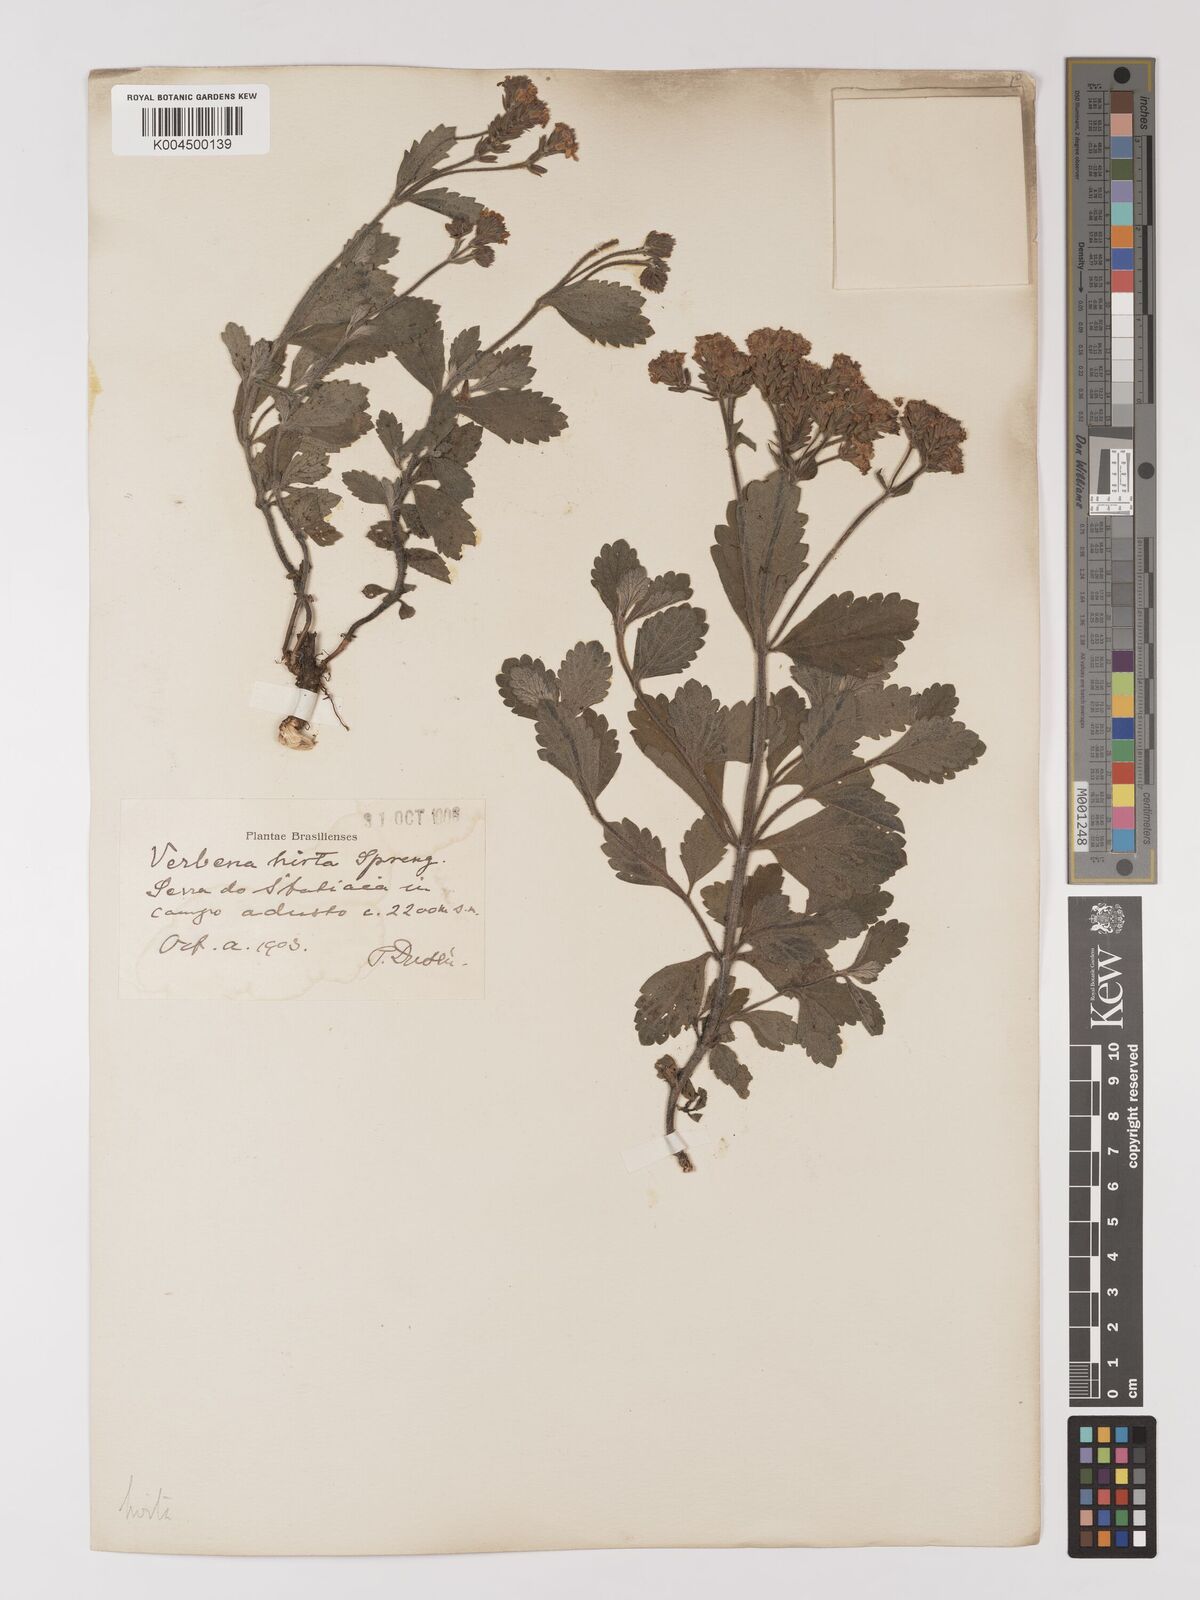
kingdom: Plantae
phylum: Tracheophyta
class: Magnoliopsida
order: Lamiales
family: Verbenaceae
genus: Verbena
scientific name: Verbena hirta
